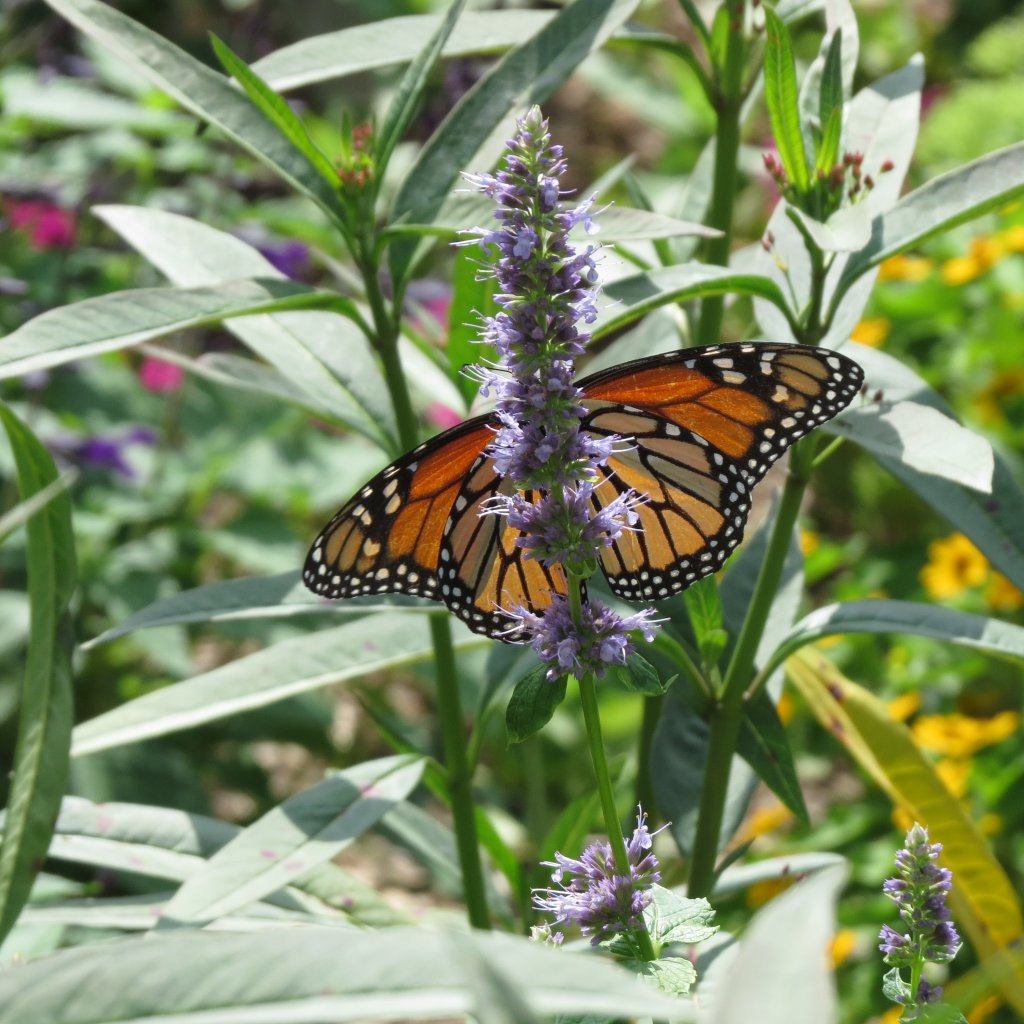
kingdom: Animalia
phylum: Arthropoda
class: Insecta
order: Lepidoptera
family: Nymphalidae
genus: Danaus
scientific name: Danaus plexippus
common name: Monarch
